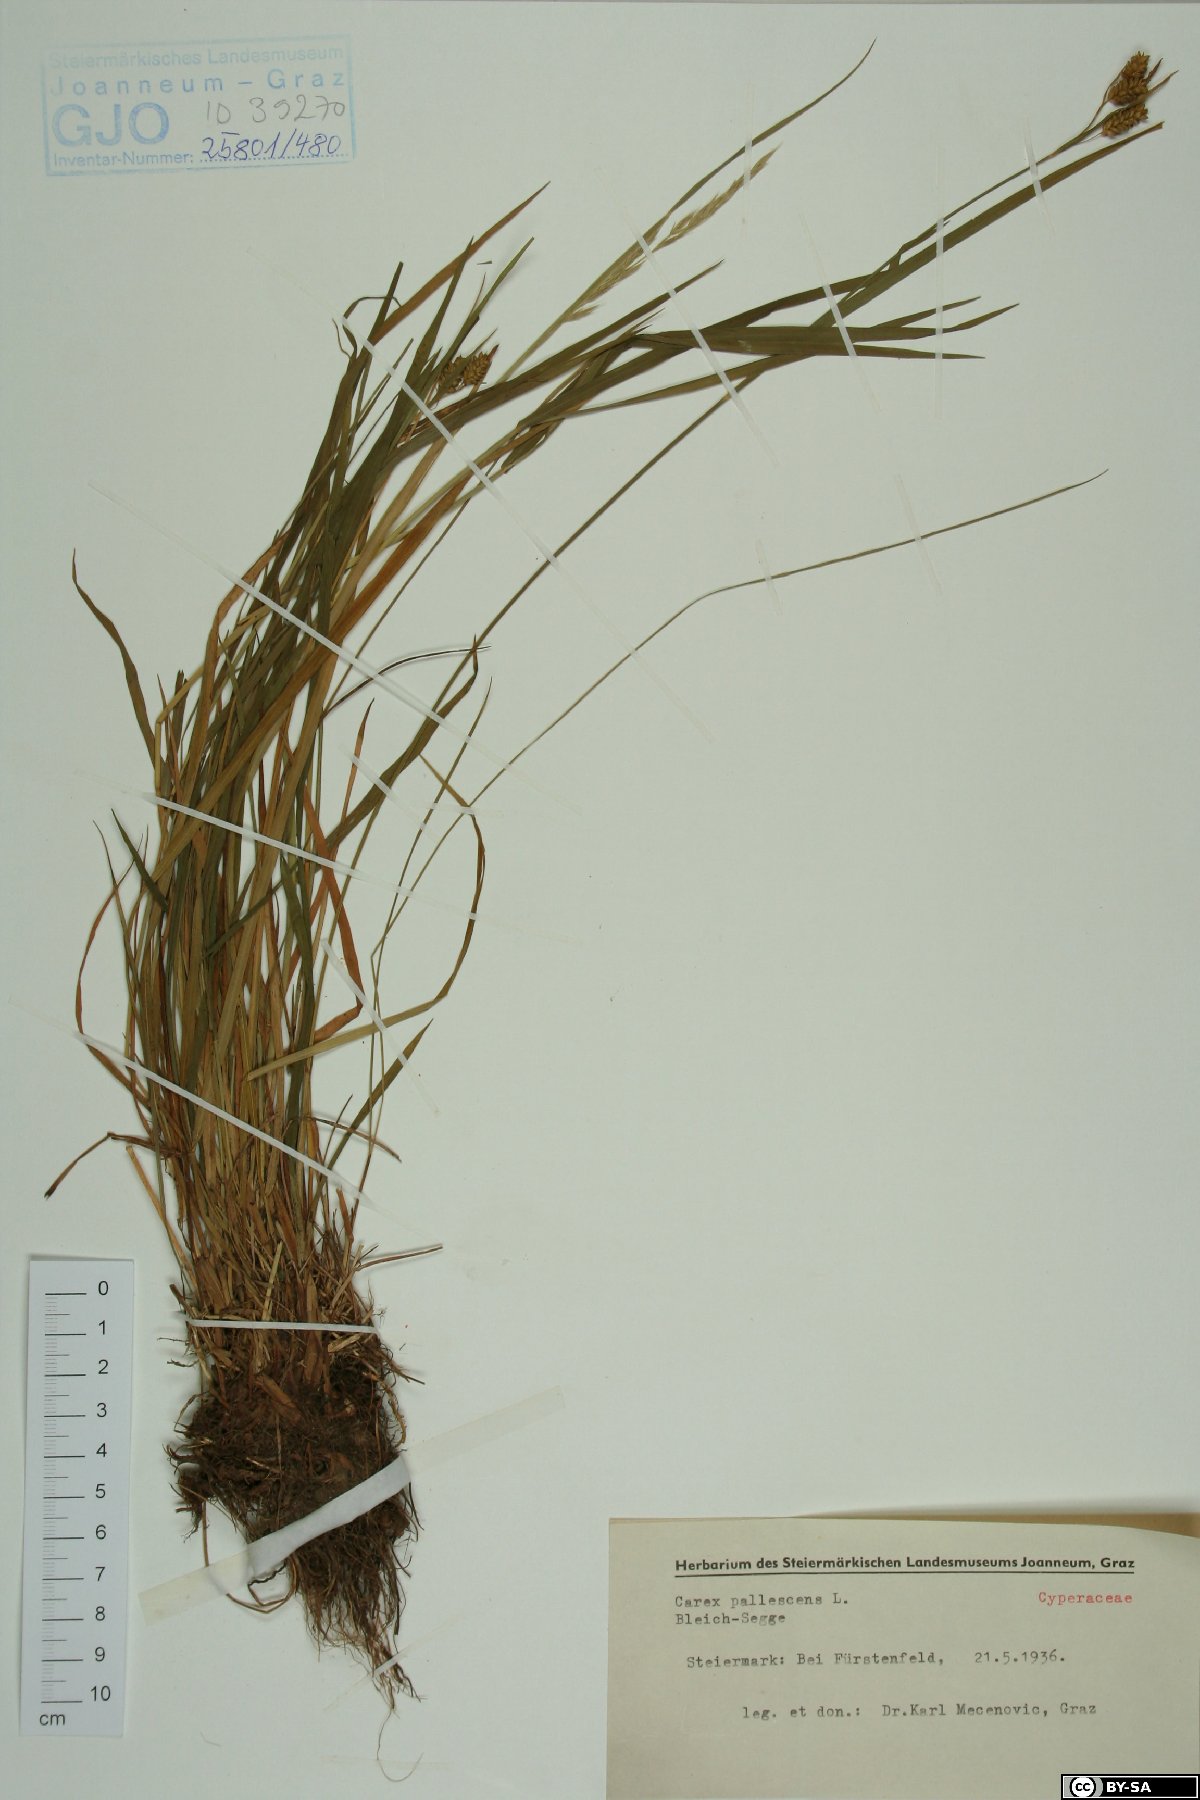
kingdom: Plantae
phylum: Tracheophyta
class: Liliopsida
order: Poales
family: Cyperaceae
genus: Carex
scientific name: Carex pallescens
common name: Pale sedge
